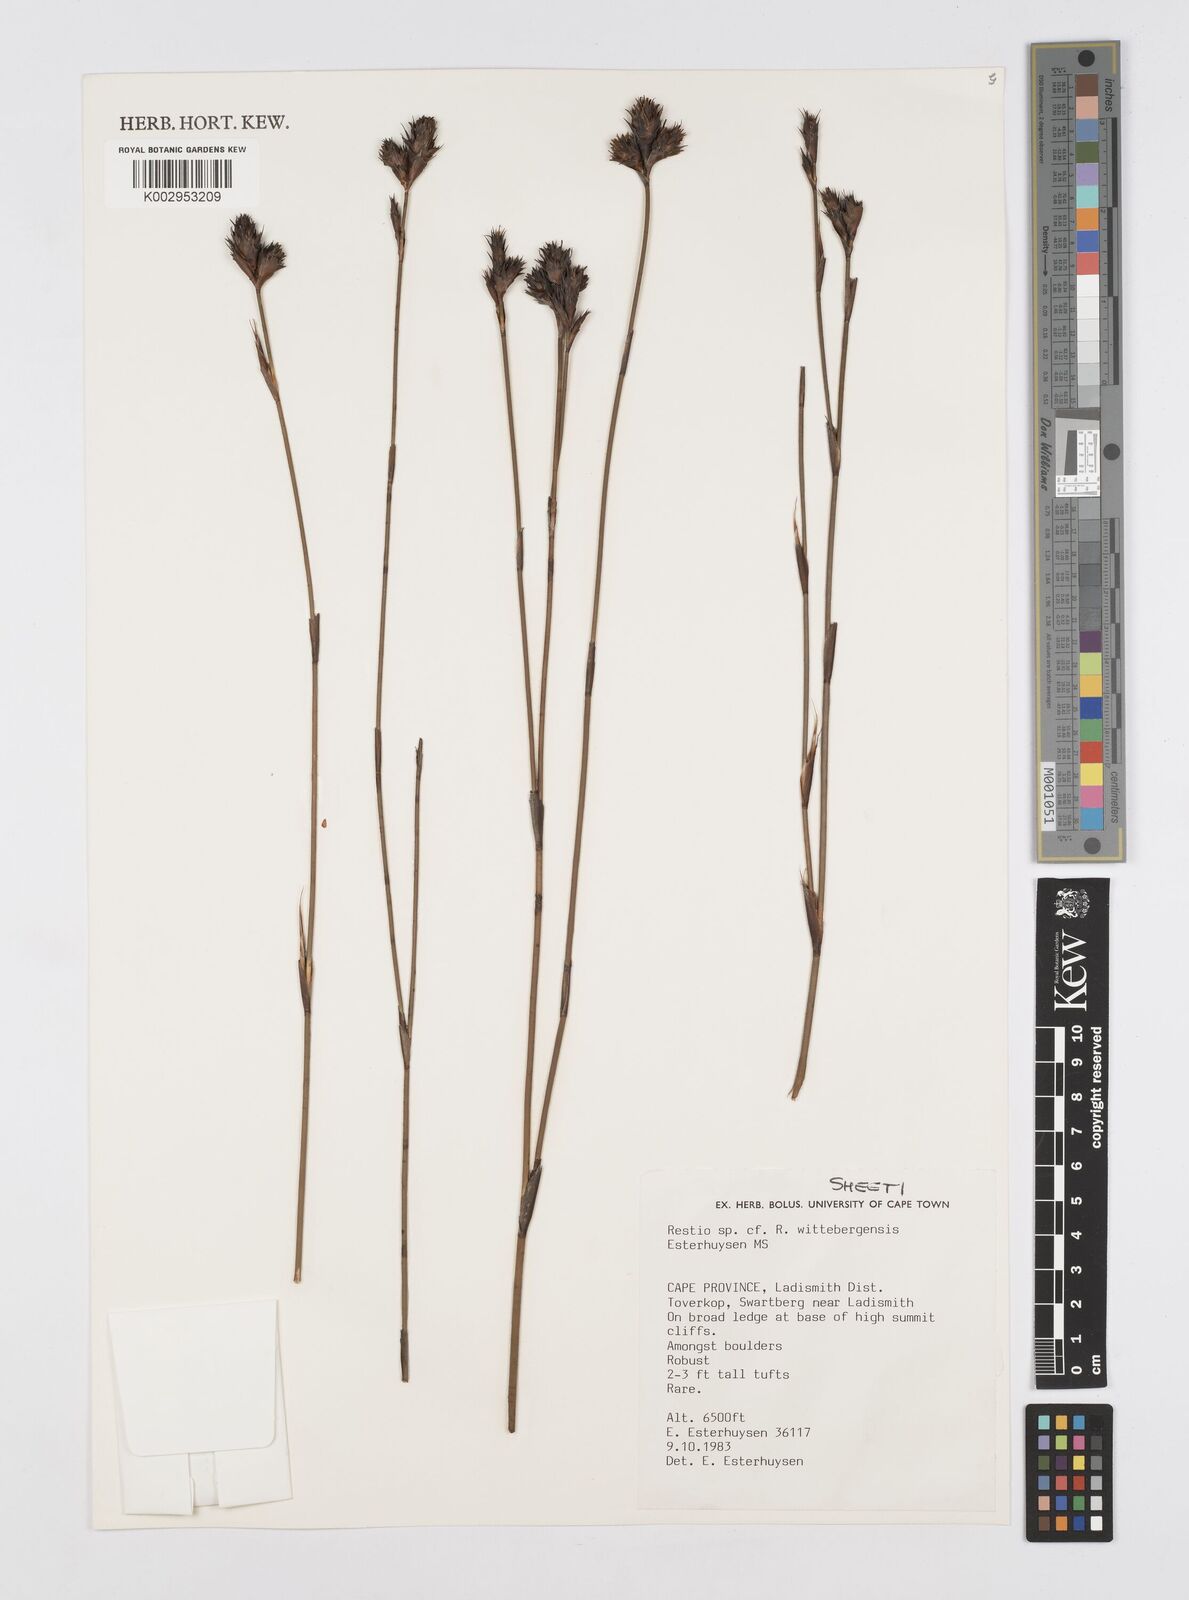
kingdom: Plantae
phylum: Tracheophyta
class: Liliopsida
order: Poales
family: Restionaceae
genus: Restio
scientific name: Restio wittebergensis
